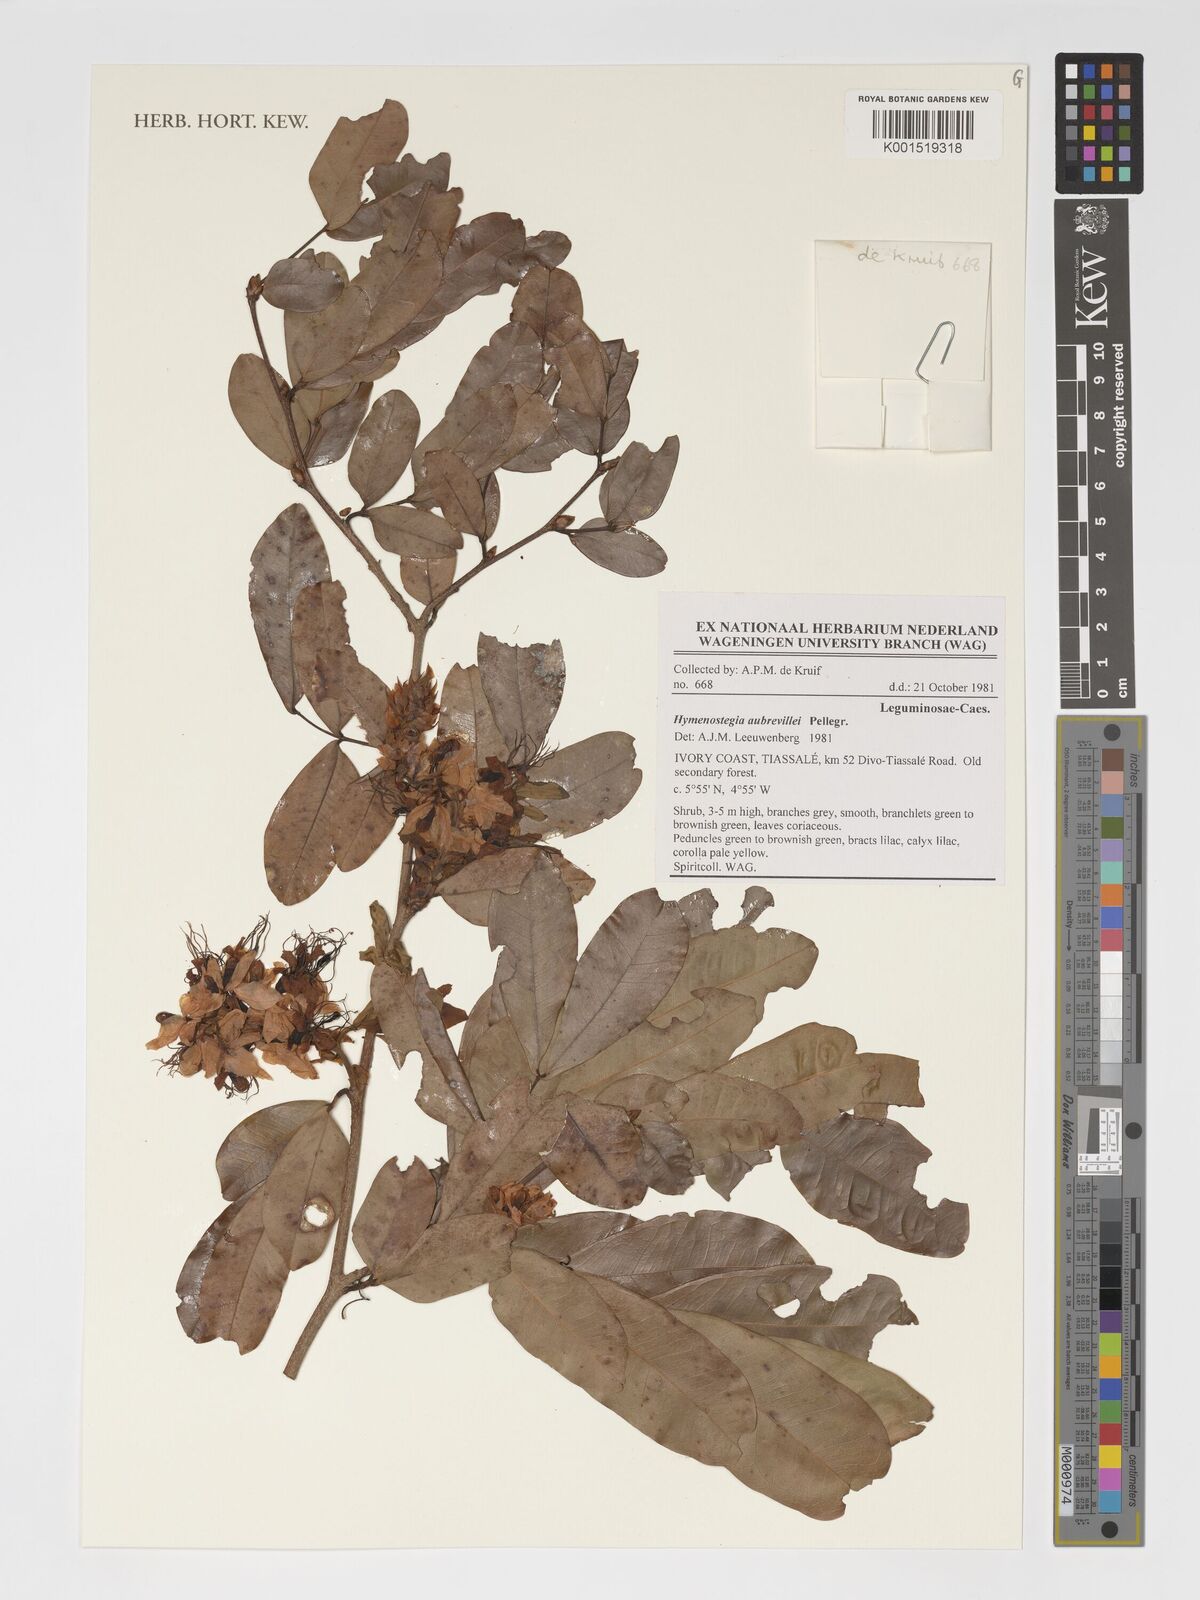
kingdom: Plantae
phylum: Tracheophyta
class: Magnoliopsida
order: Fabales
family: Fabaceae
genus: Hymenostegia
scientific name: Hymenostegia aubrevillei
